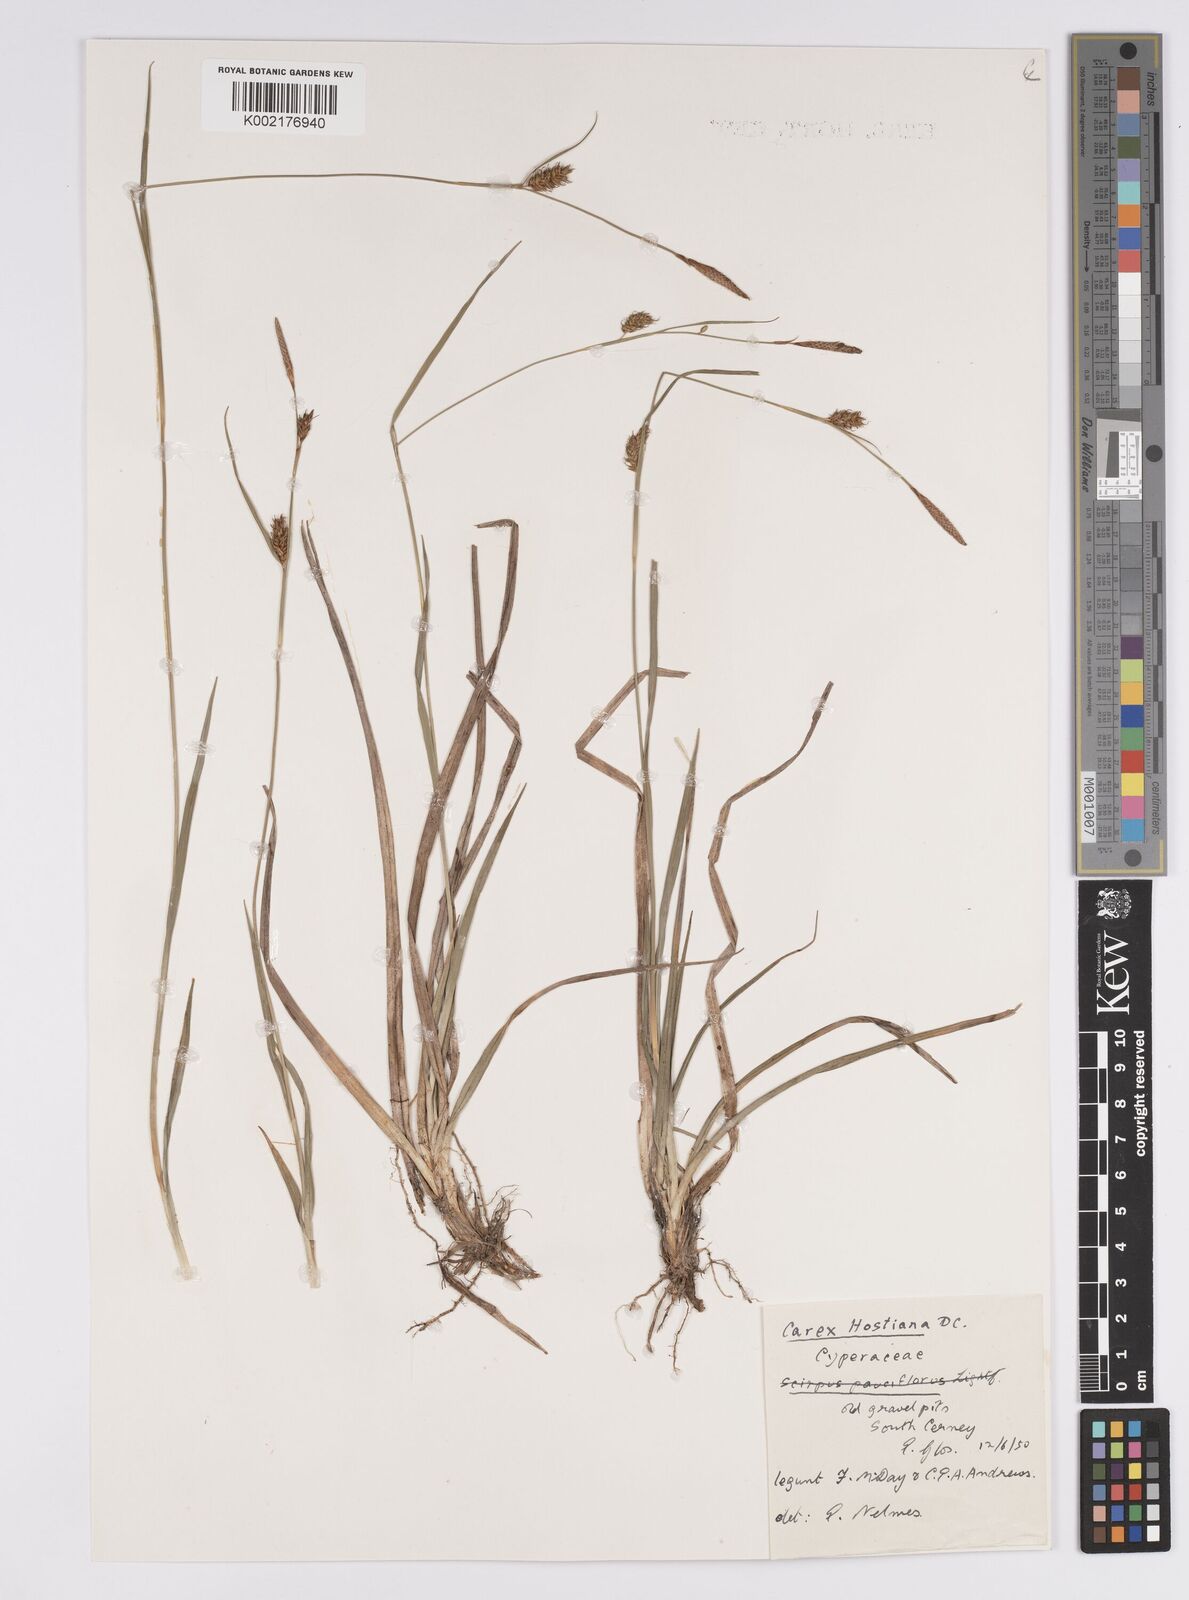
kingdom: Plantae
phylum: Tracheophyta
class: Liliopsida
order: Poales
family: Cyperaceae
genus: Carex
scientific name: Carex hostiana
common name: Tawny sedge
